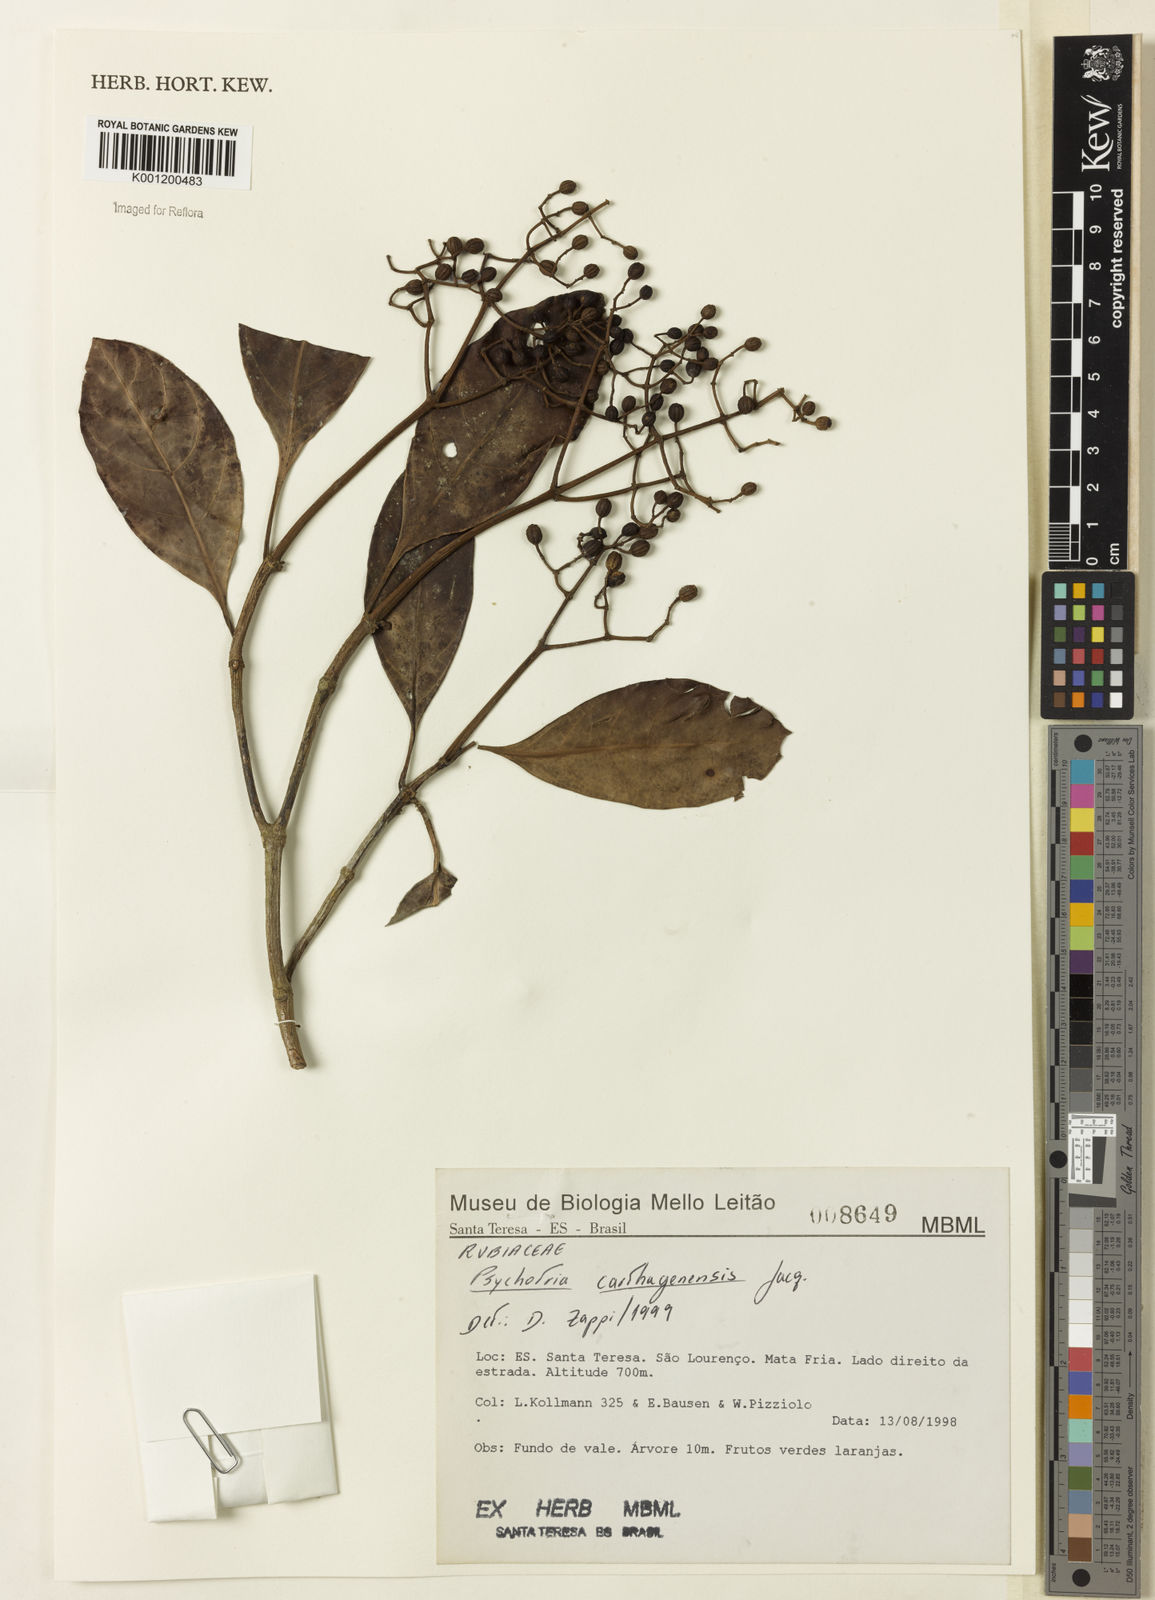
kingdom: Plantae
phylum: Tracheophyta
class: Magnoliopsida
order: Gentianales
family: Rubiaceae
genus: Psychotria
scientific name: Psychotria carthagenensis
